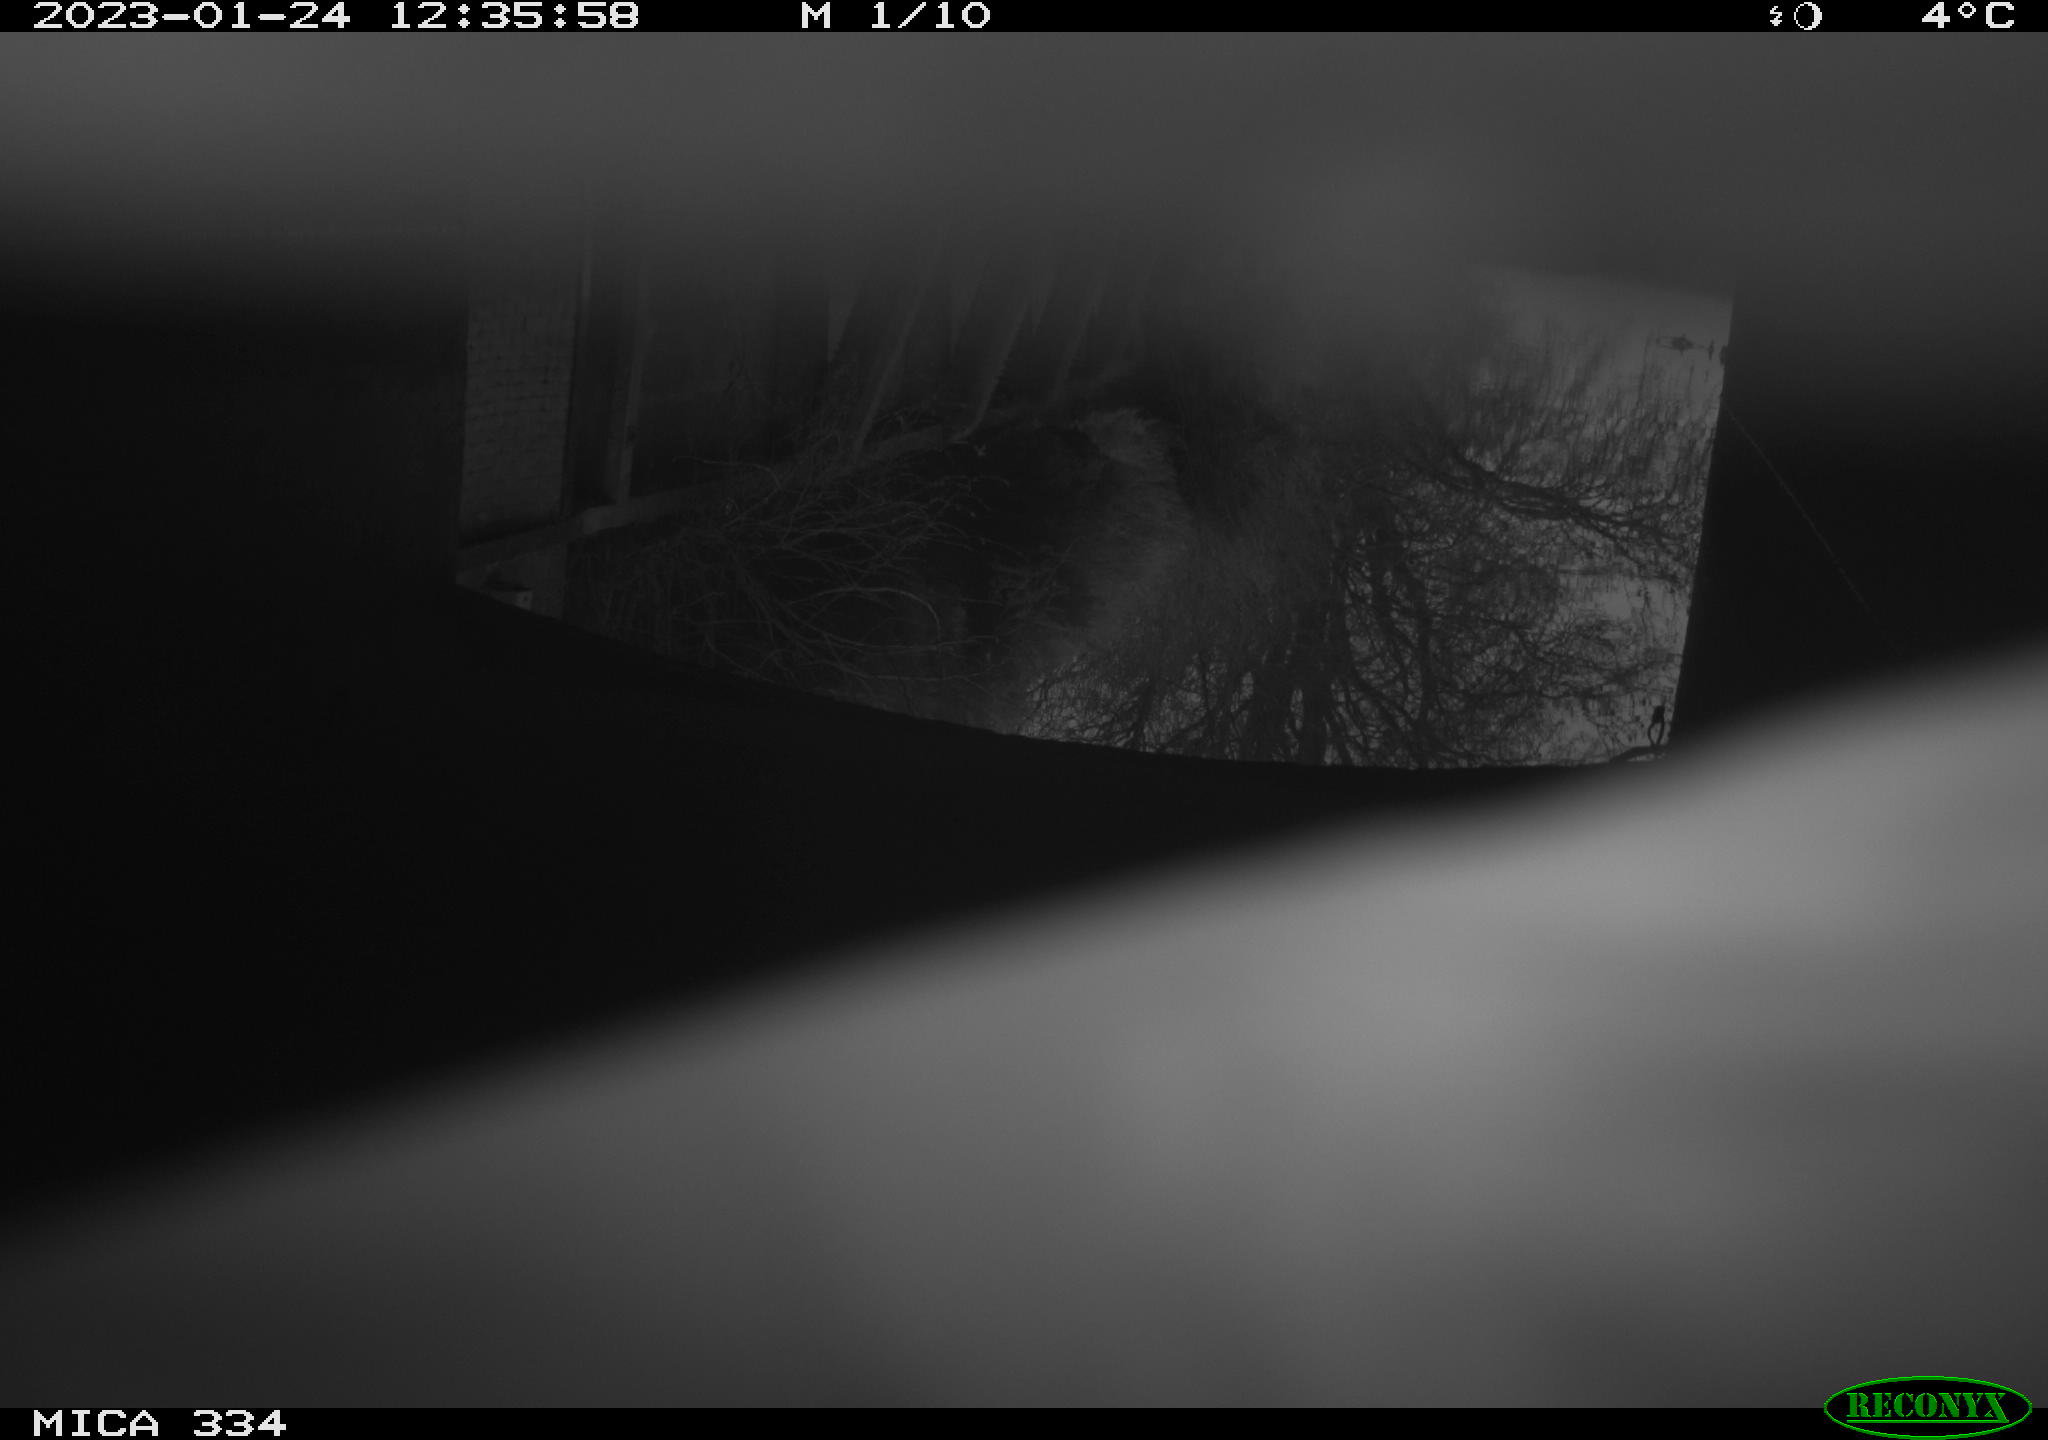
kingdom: Animalia
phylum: Chordata
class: Mammalia
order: Rodentia
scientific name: Rodentia
